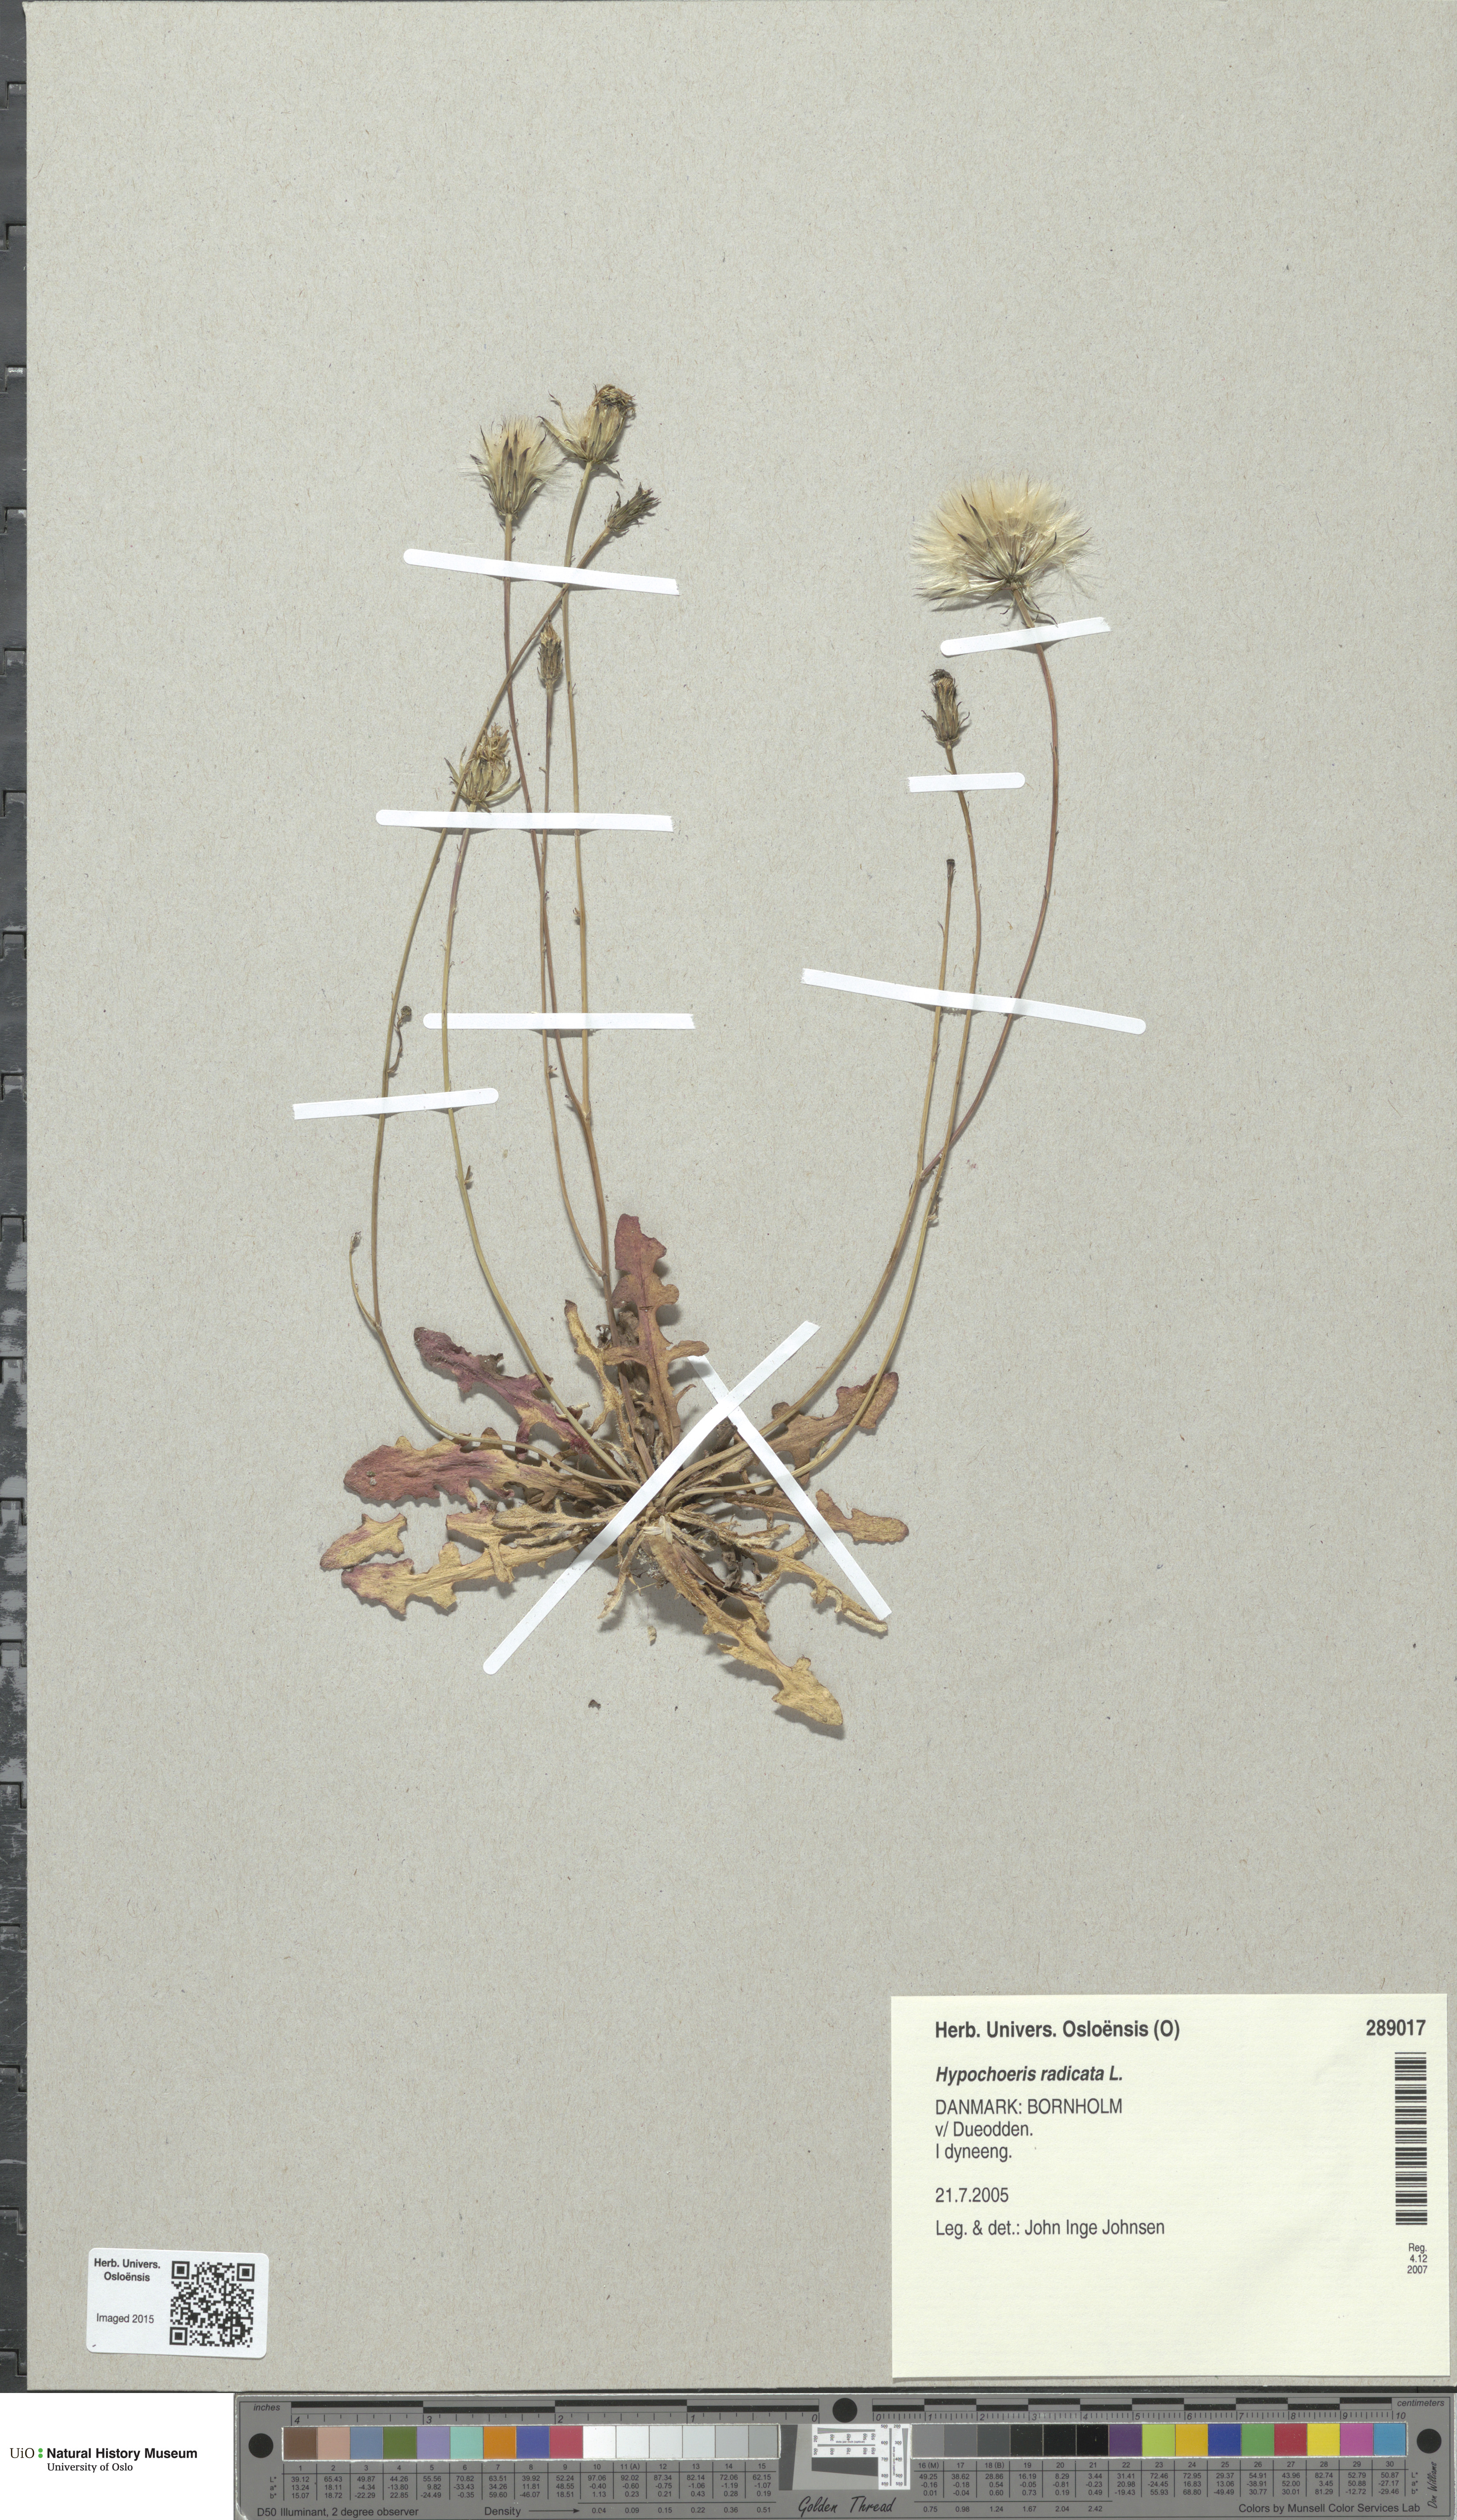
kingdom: Plantae
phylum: Tracheophyta
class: Magnoliopsida
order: Asterales
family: Asteraceae
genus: Hypochaeris
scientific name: Hypochaeris radicata
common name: Flatweed
